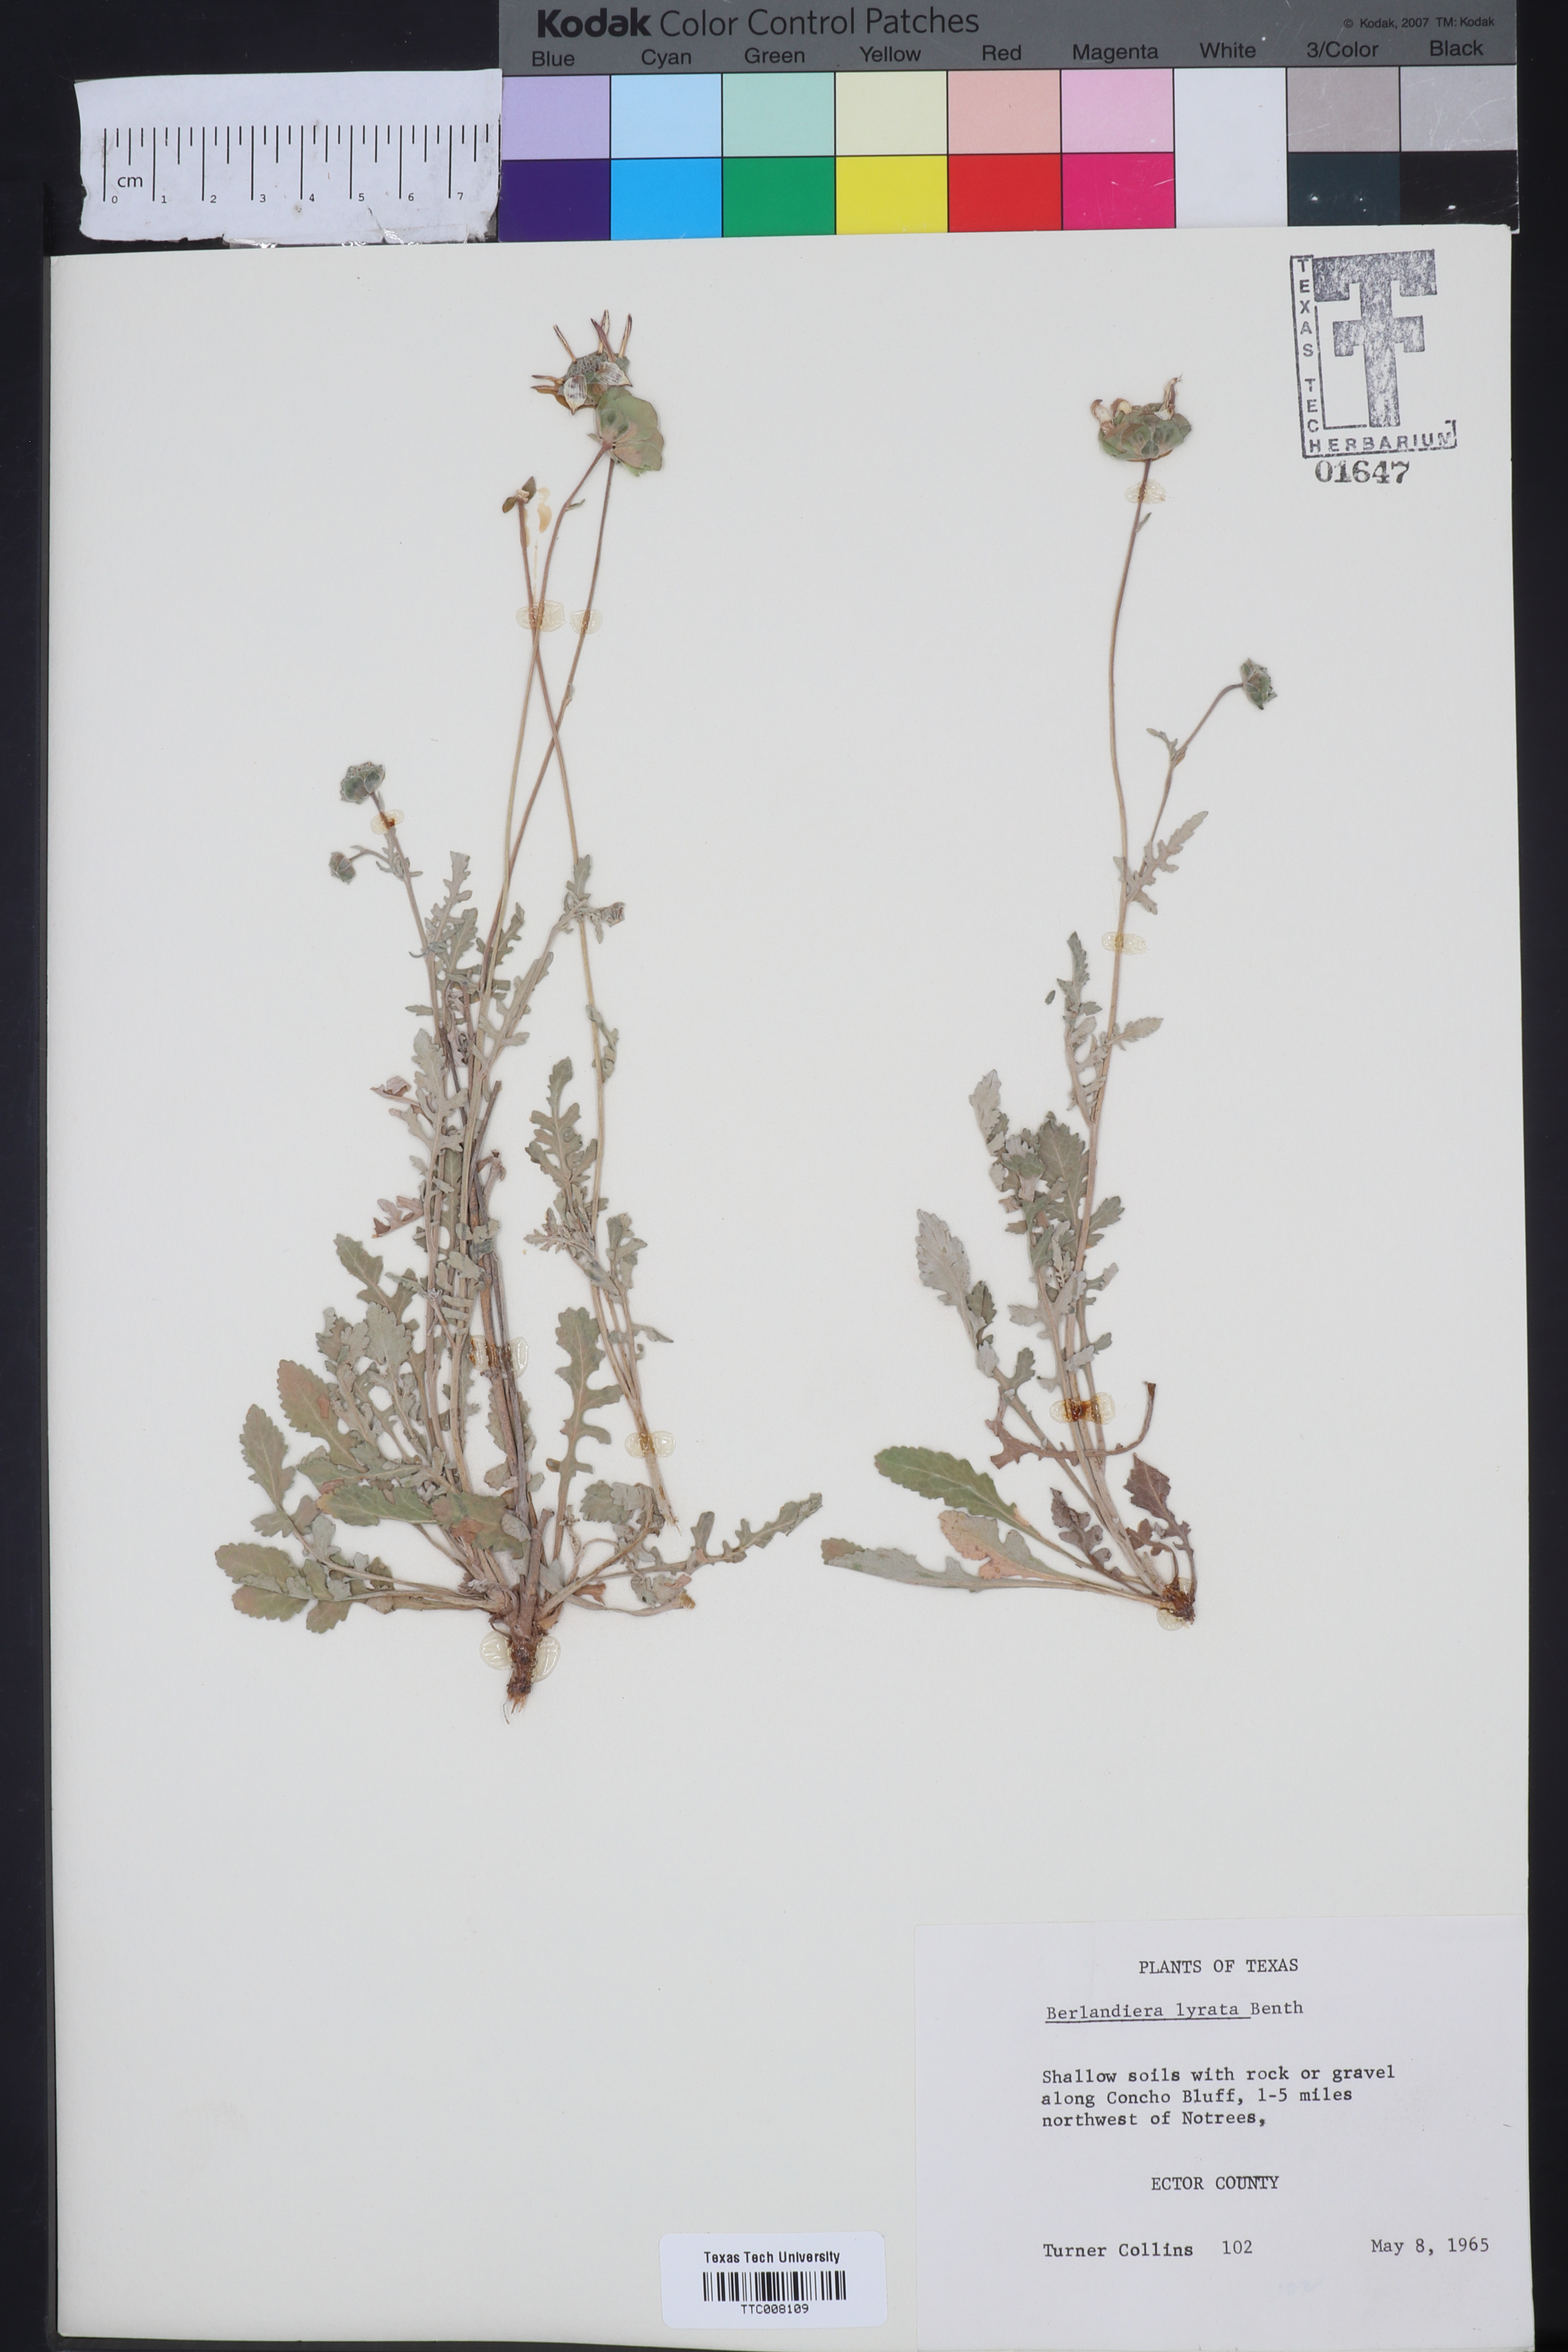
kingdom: Plantae
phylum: Tracheophyta
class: Magnoliopsida
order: Asterales
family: Asteraceae
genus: Berlandiera
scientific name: Berlandiera lyrata
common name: Chocolate-flower
